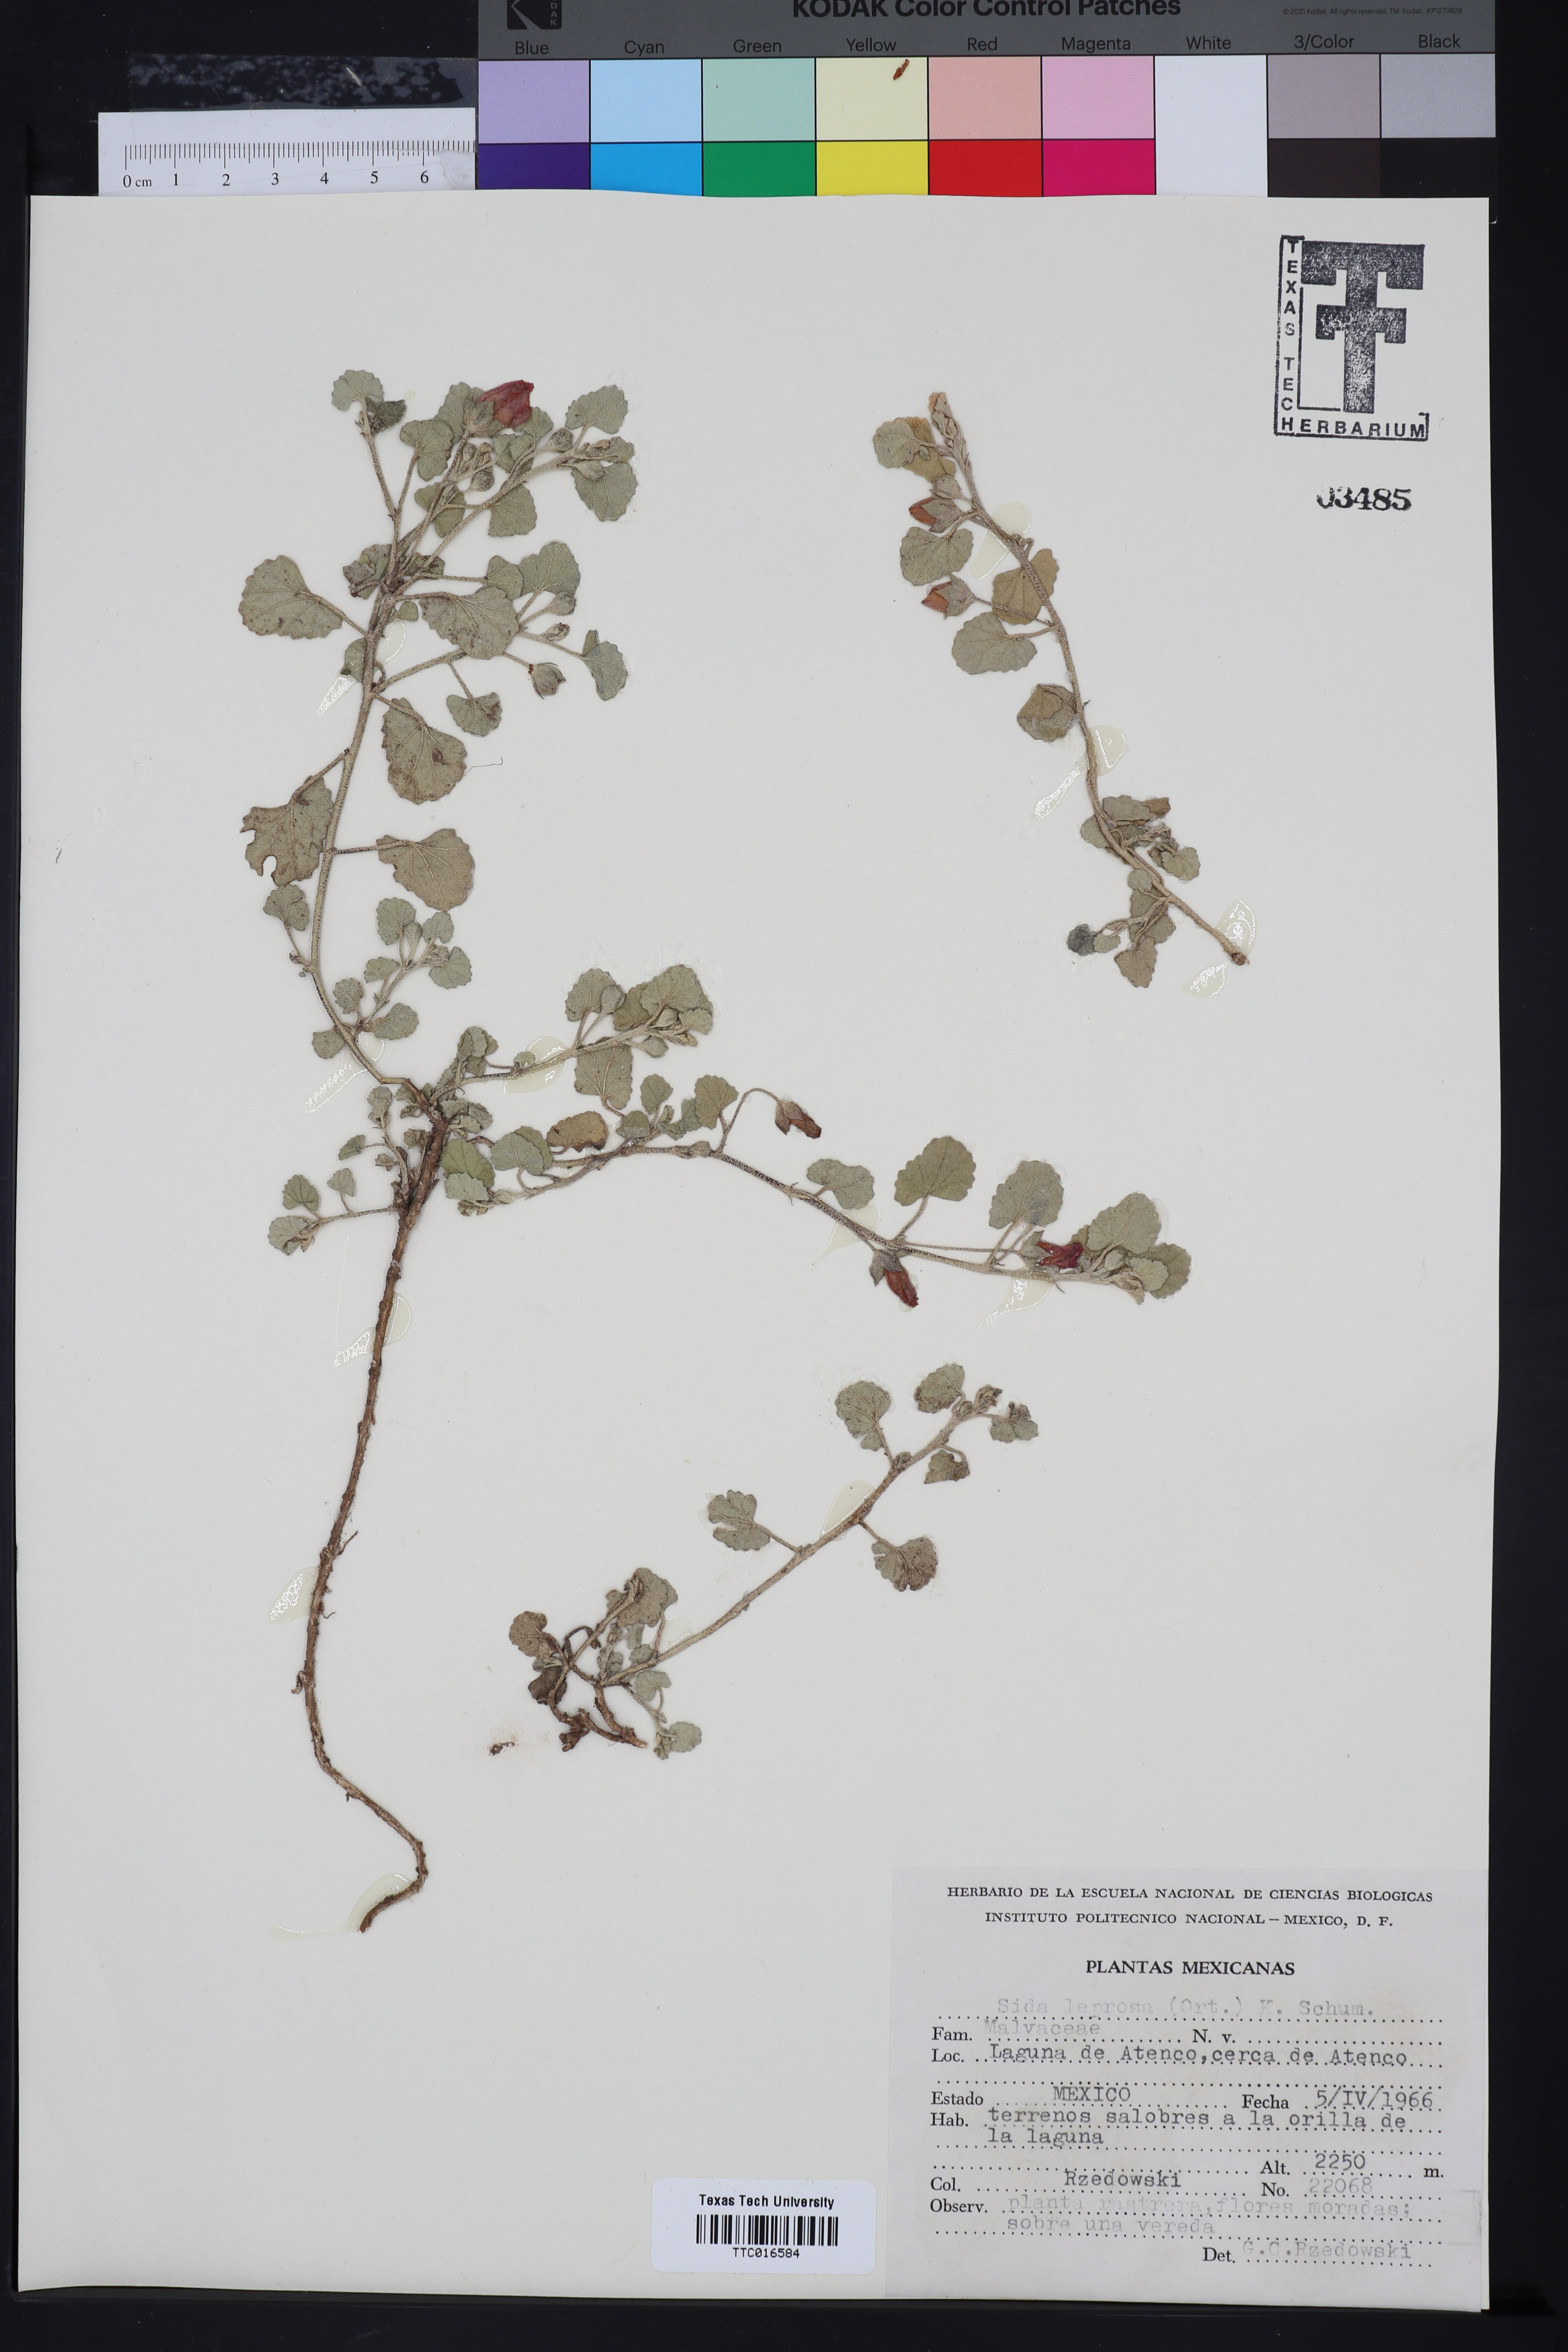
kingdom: Plantae
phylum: Tracheophyta
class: Magnoliopsida
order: Malvales
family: Malvaceae
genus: Malvella
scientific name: Malvella leprosa
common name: Alkali-mallow
